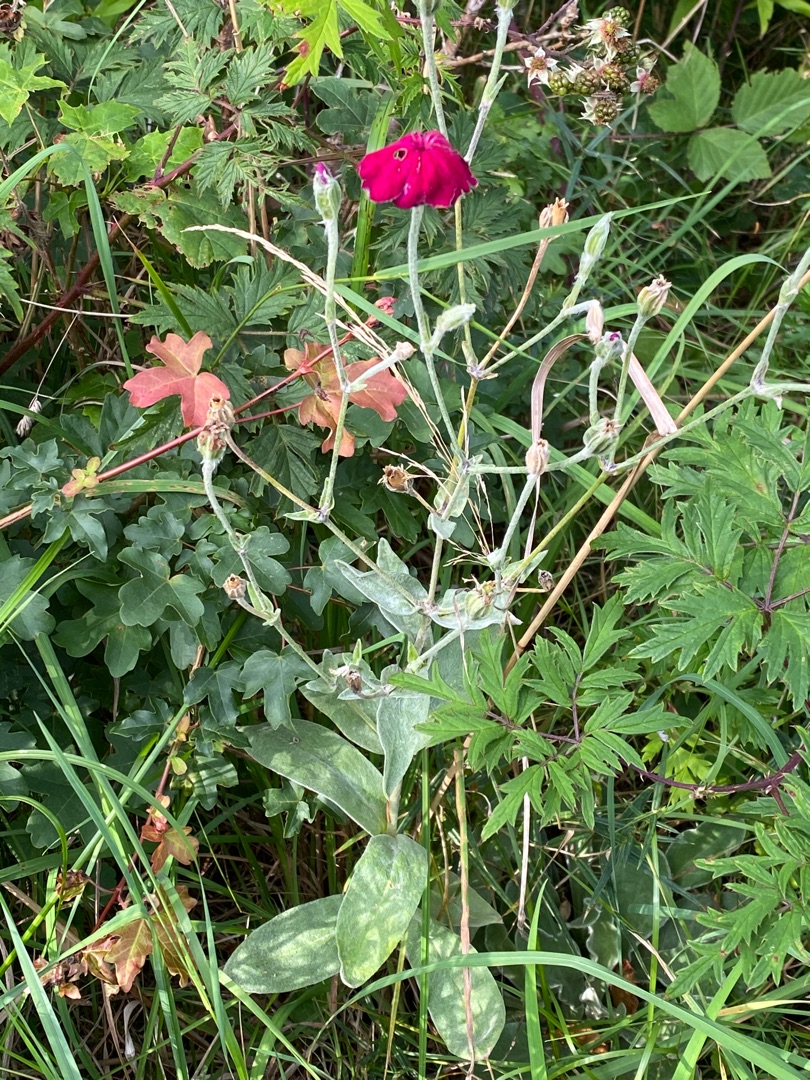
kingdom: Plantae
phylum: Tracheophyta
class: Magnoliopsida
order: Caryophyllales
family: Caryophyllaceae
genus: Silene
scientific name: Silene coronaria
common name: Fiksernellike
